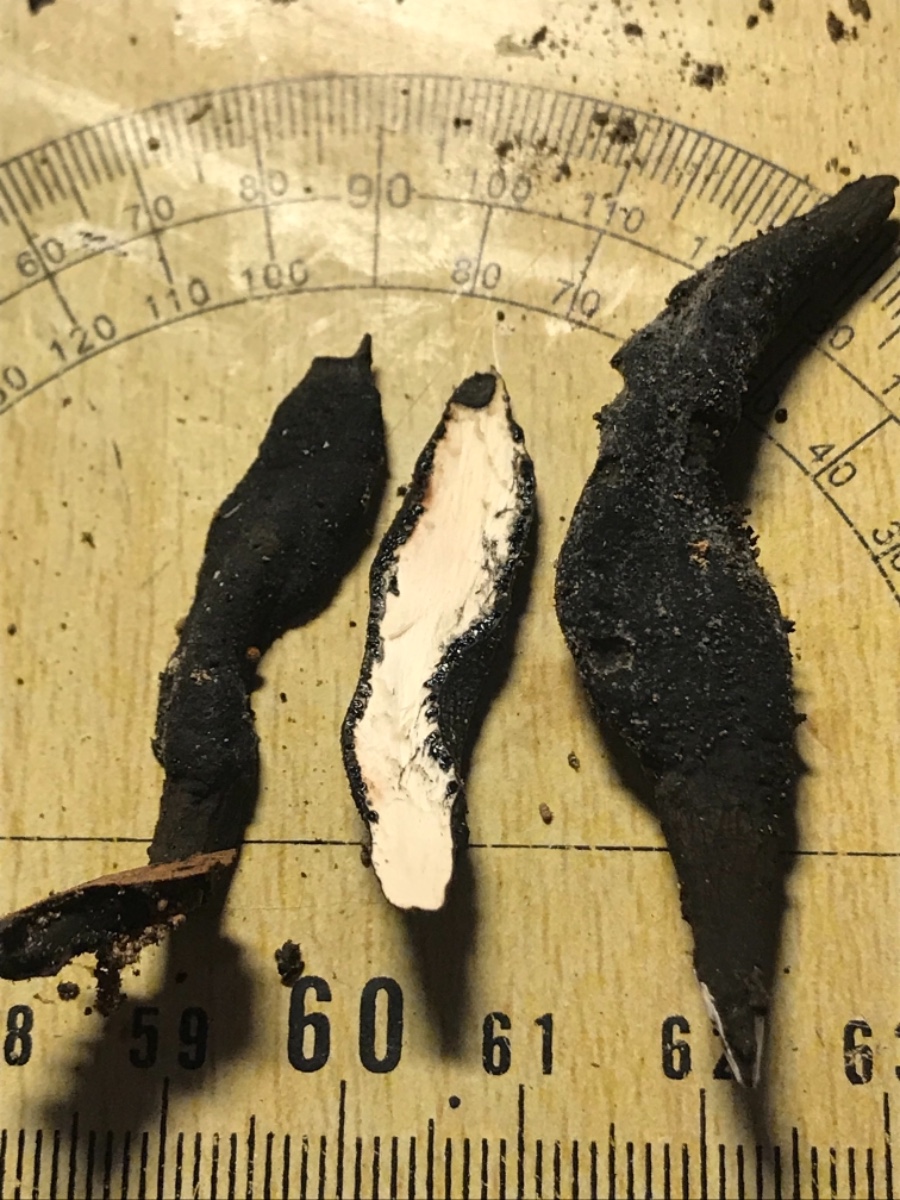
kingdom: Fungi
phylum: Ascomycota
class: Sordariomycetes
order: Xylariales
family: Xylariaceae
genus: Xylaria
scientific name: Xylaria longipes
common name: slank stødsvamp
